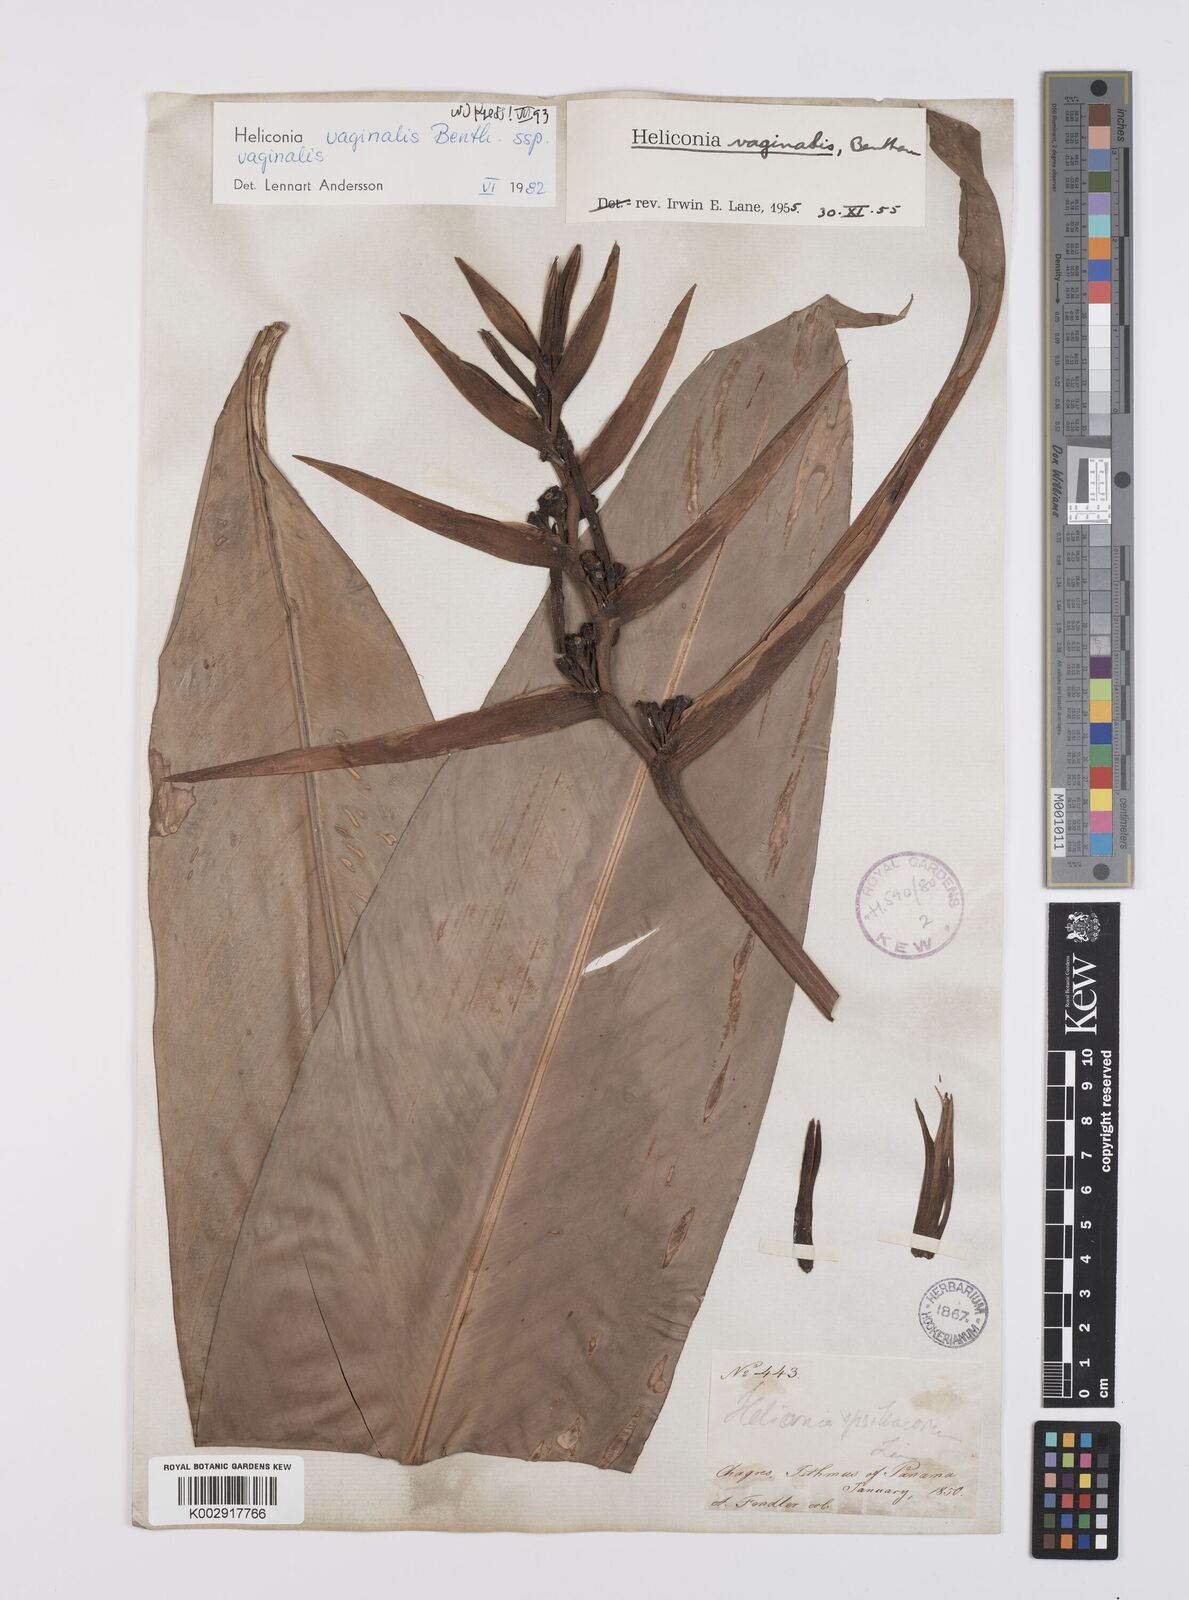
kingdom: Plantae
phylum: Tracheophyta
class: Liliopsida
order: Zingiberales
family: Heliconiaceae
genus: Heliconia
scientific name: Heliconia vaginalis
